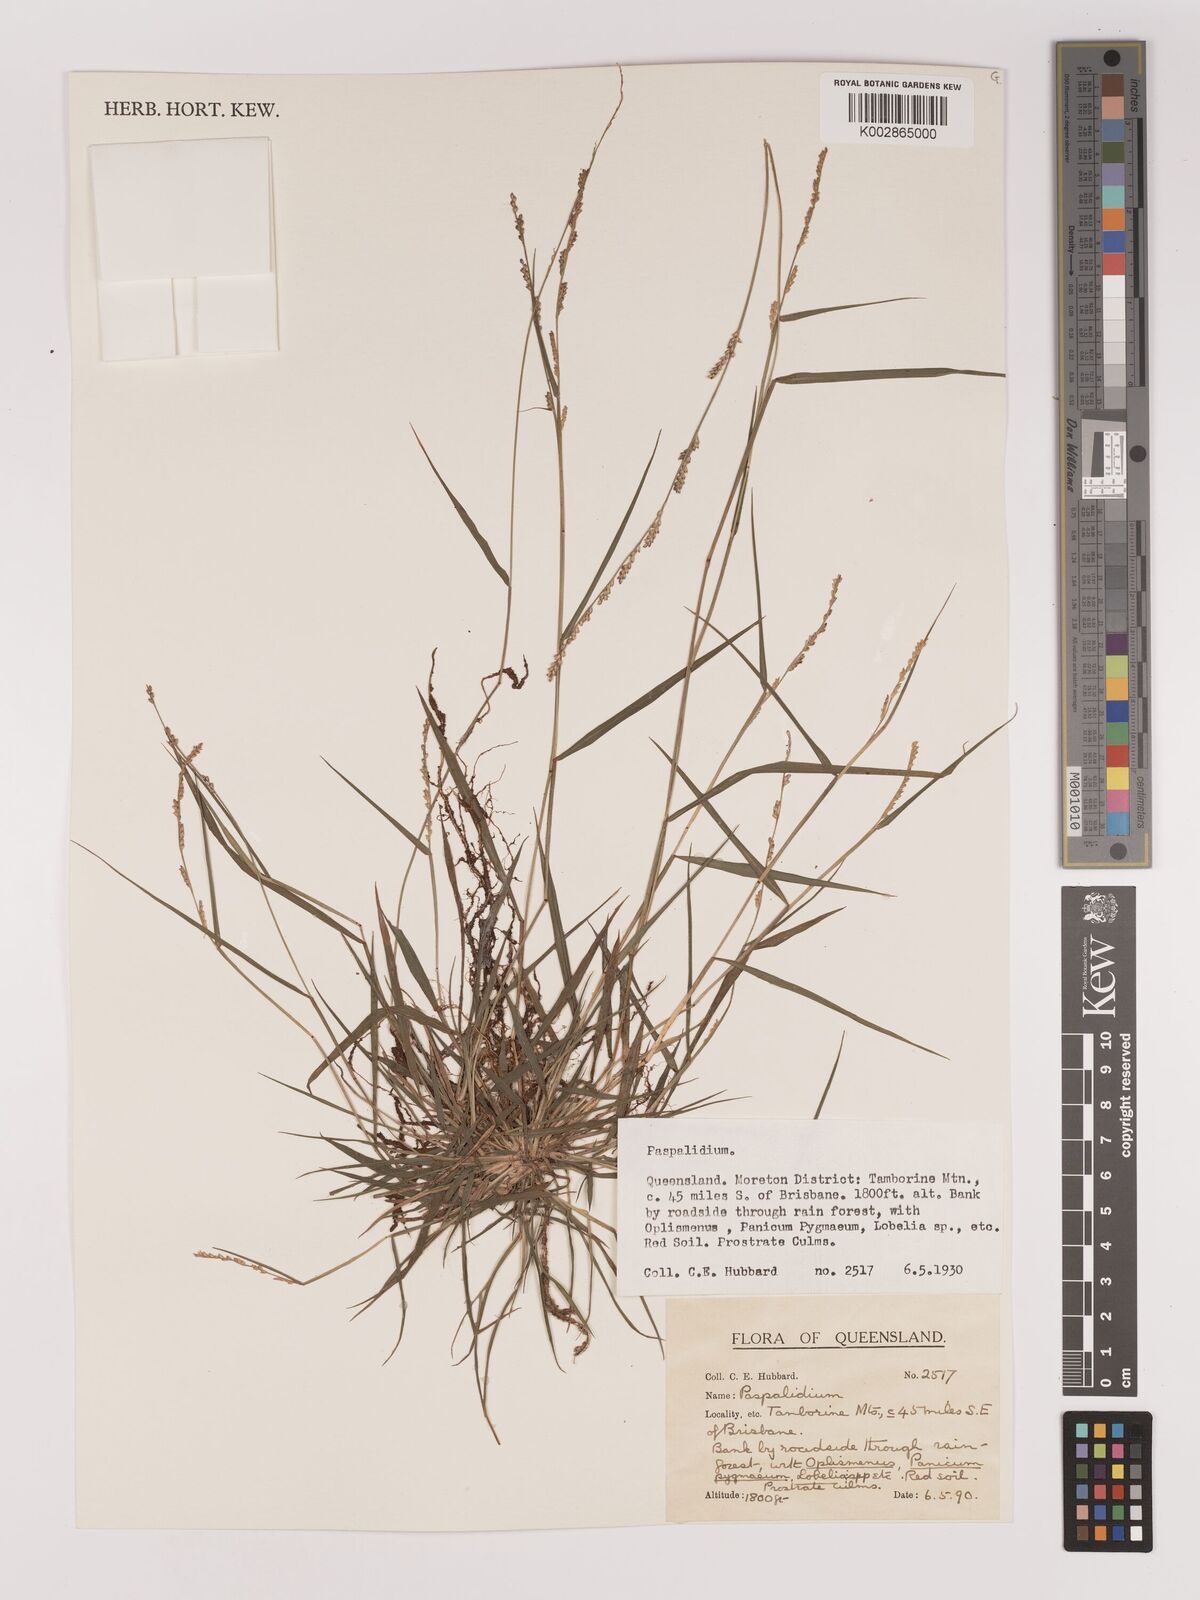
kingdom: Plantae
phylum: Tracheophyta
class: Liliopsida
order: Poales
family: Poaceae
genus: Setaria
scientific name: Setaria
